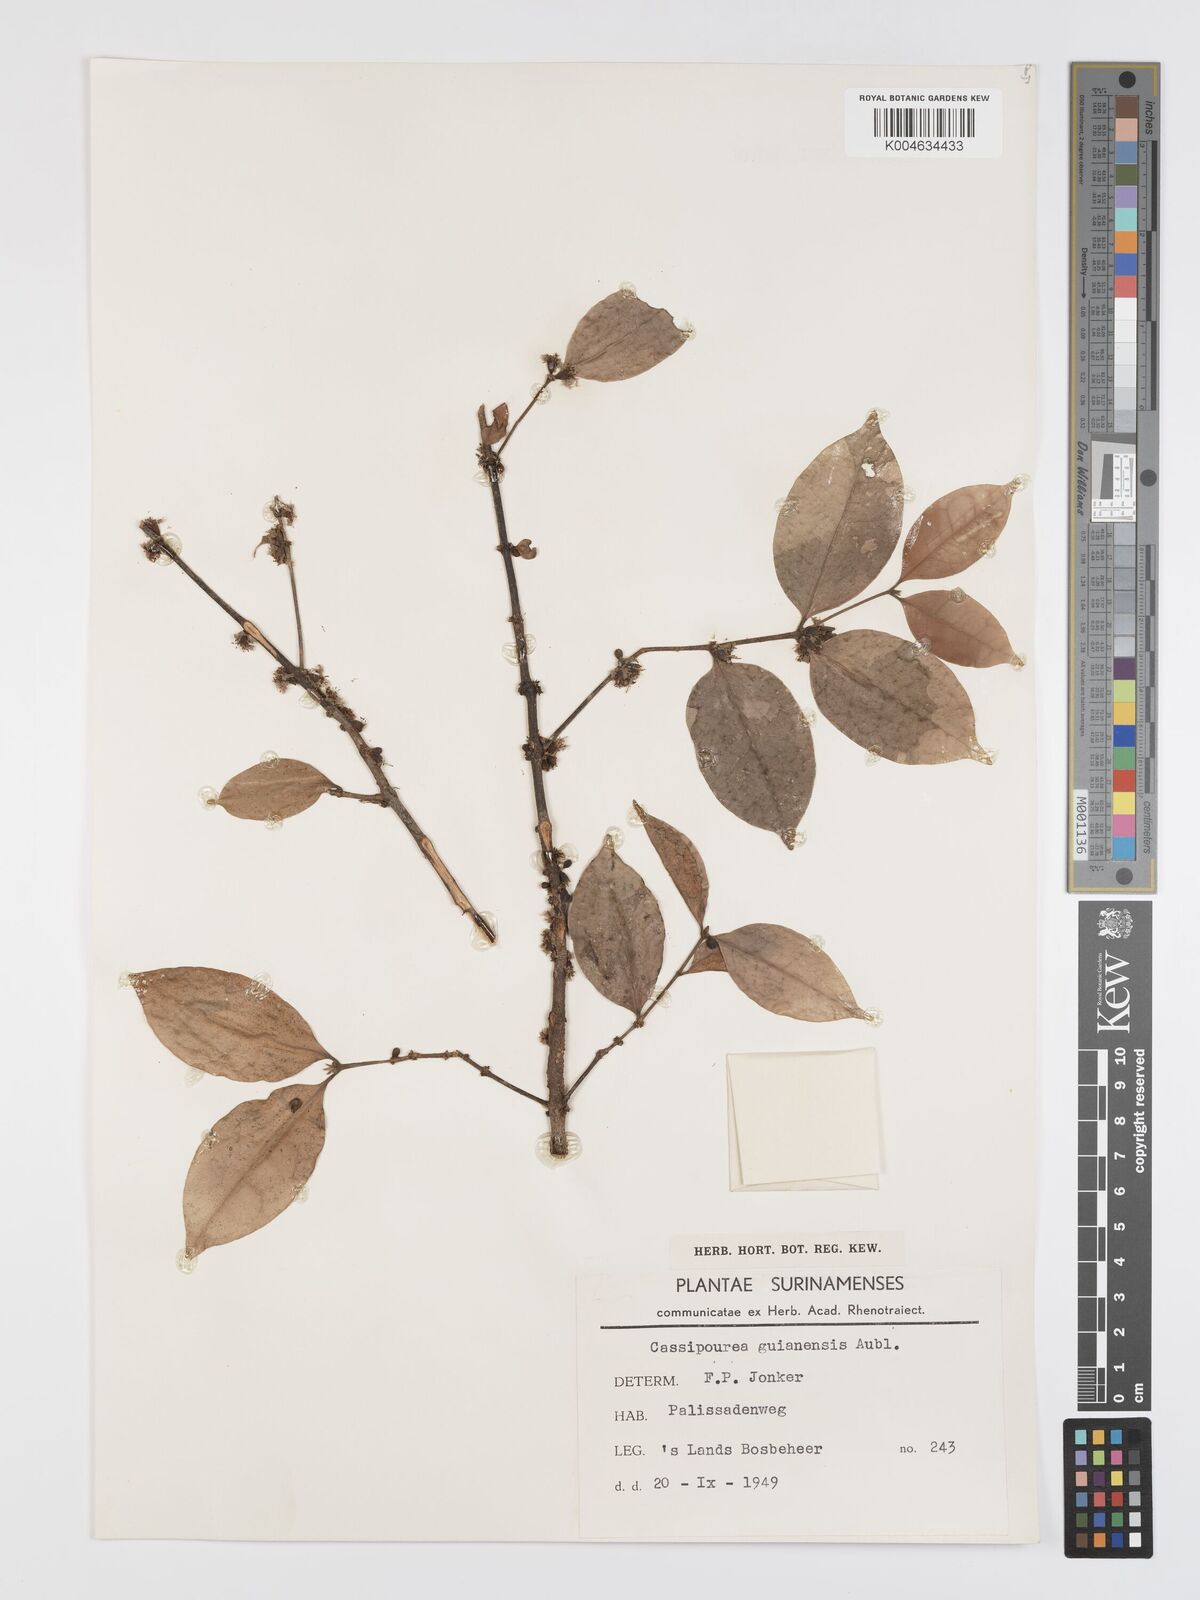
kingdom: Plantae
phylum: Tracheophyta
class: Magnoliopsida
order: Malpighiales
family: Rhizophoraceae
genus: Cassipourea
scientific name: Cassipourea guianensis
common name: Bastard waterwood
